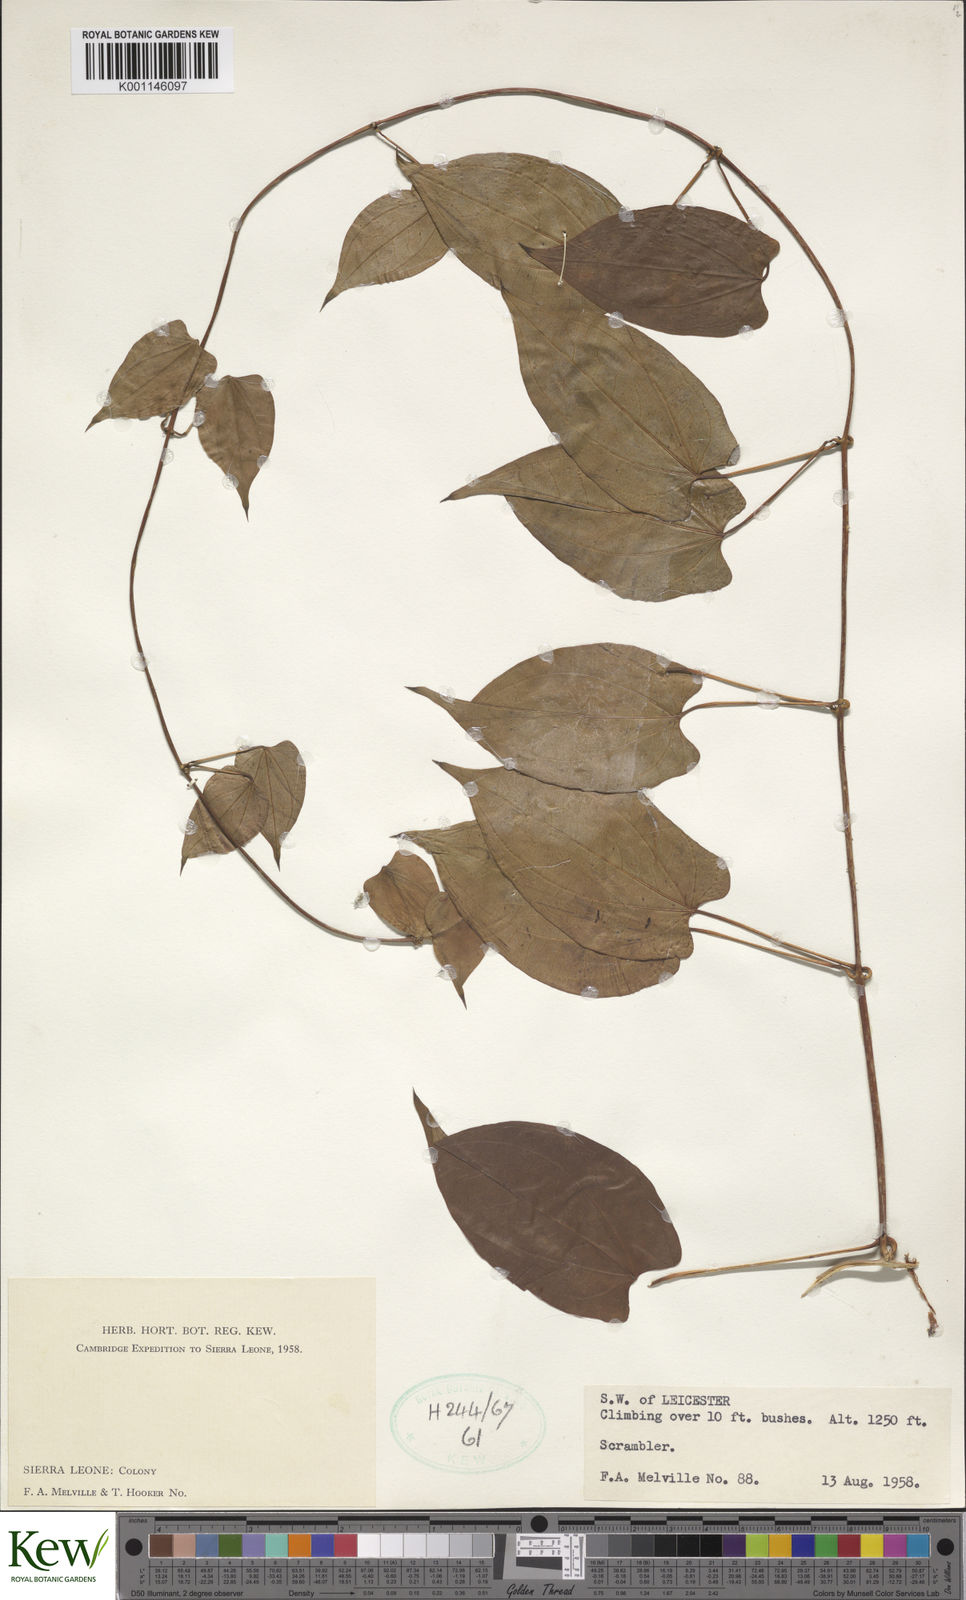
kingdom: Plantae
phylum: Tracheophyta
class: Liliopsida
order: Dioscoreales
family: Dioscoreaceae
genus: Dioscorea
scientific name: Dioscorea
